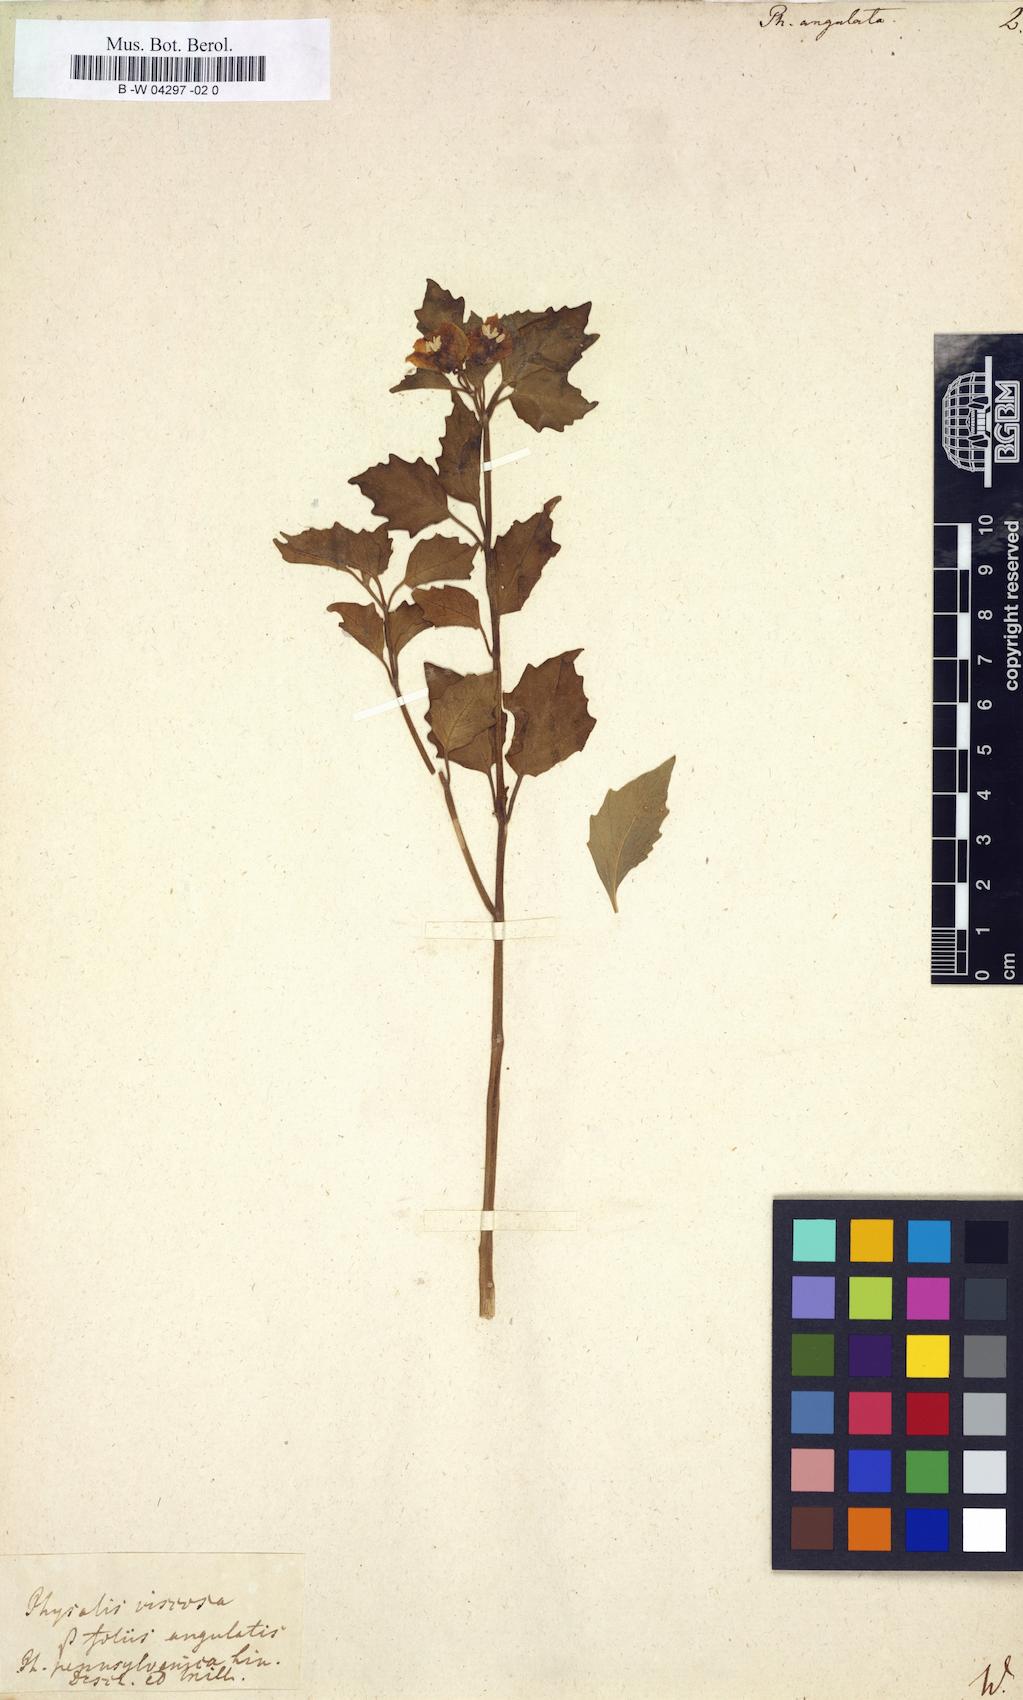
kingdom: Plantae
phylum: Tracheophyta
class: Magnoliopsida
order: Solanales
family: Solanaceae
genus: Physalis
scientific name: Physalis angulata
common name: Angular winter-cherry
